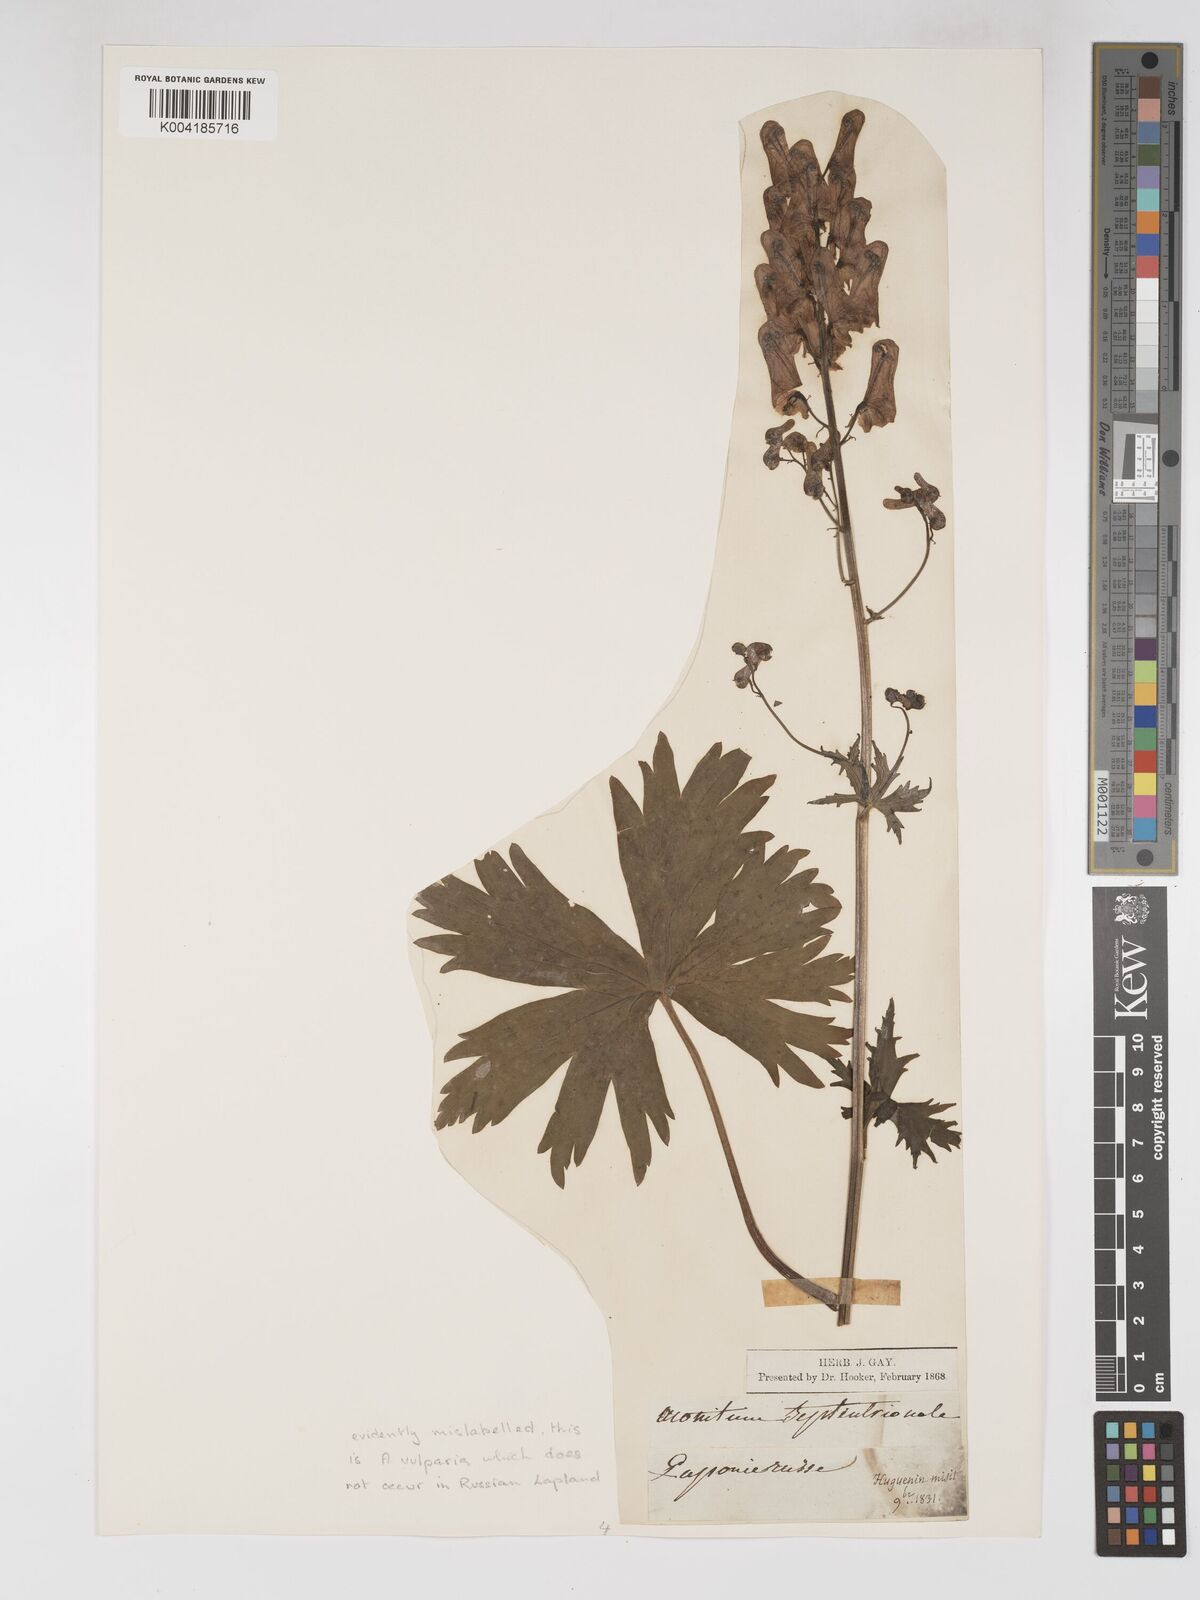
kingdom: Plantae
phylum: Tracheophyta
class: Magnoliopsida
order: Ranunculales
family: Ranunculaceae
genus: Aconitum
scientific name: Aconitum lycoctonum
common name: Wolf's-bane
